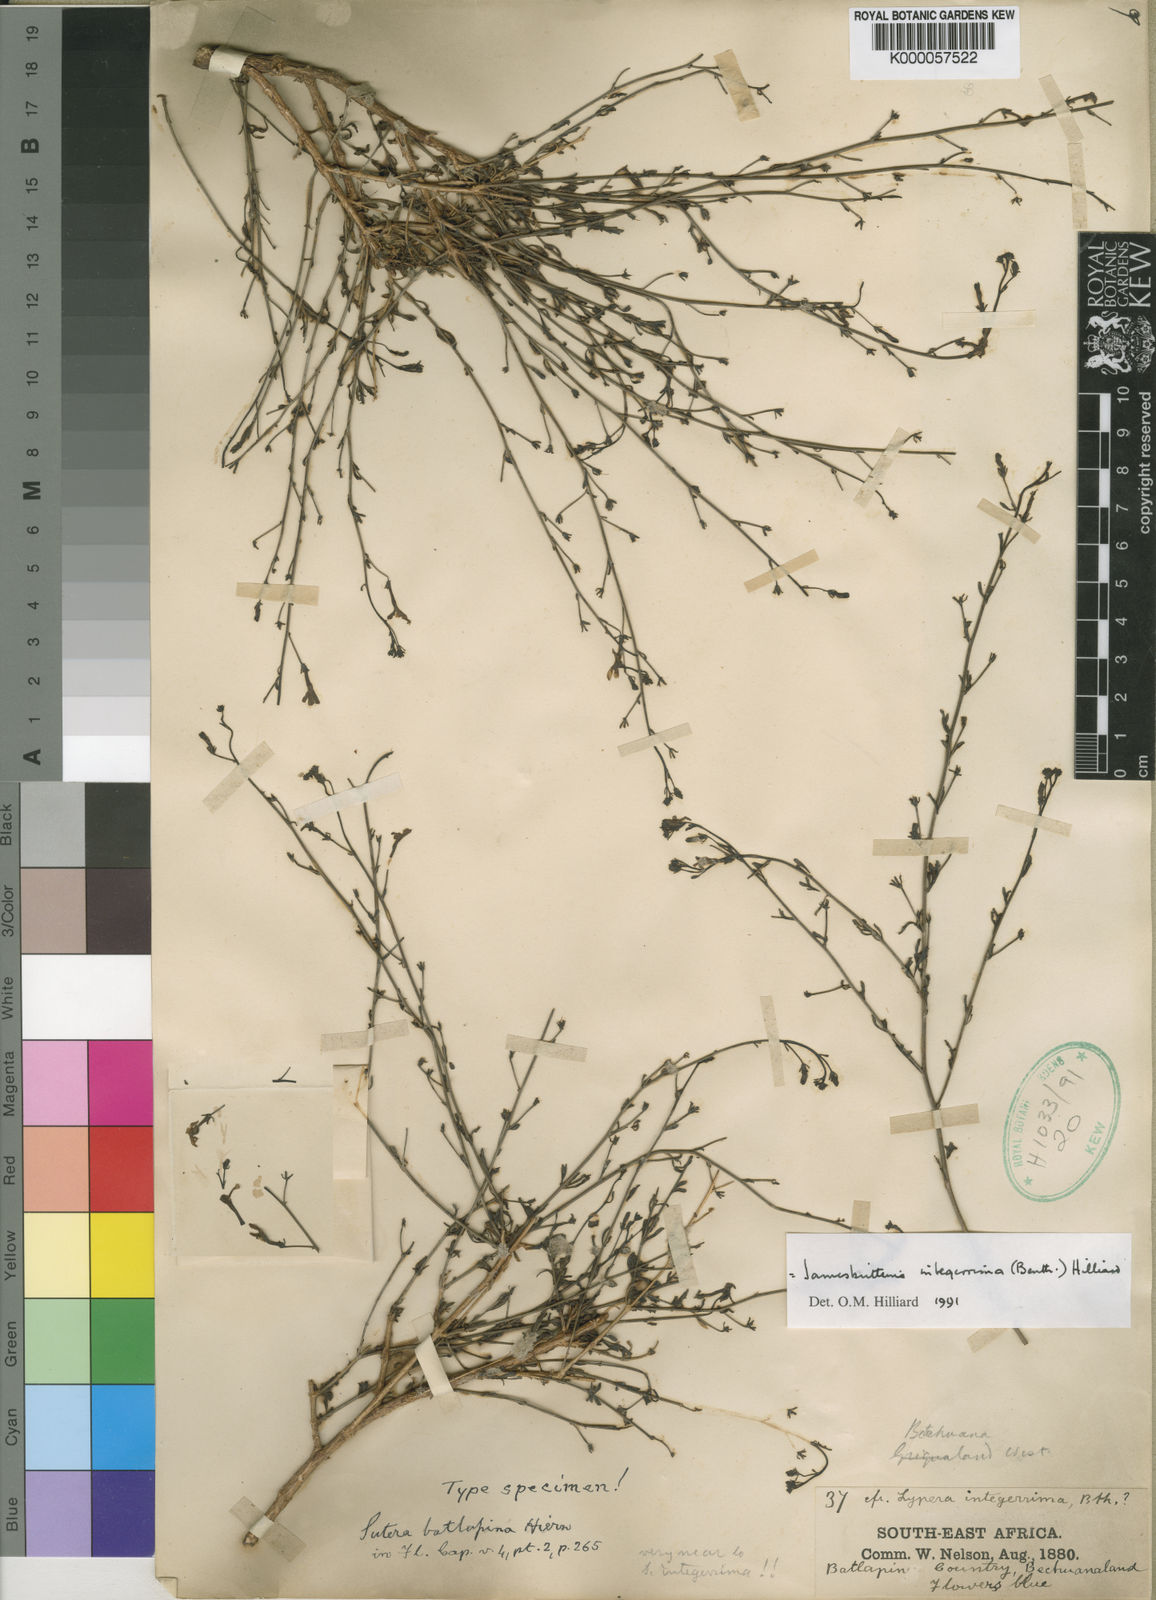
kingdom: Plantae
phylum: Tracheophyta
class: Magnoliopsida
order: Lamiales
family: Scrophulariaceae
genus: Jamesbrittenia
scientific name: Jamesbrittenia integerrima
